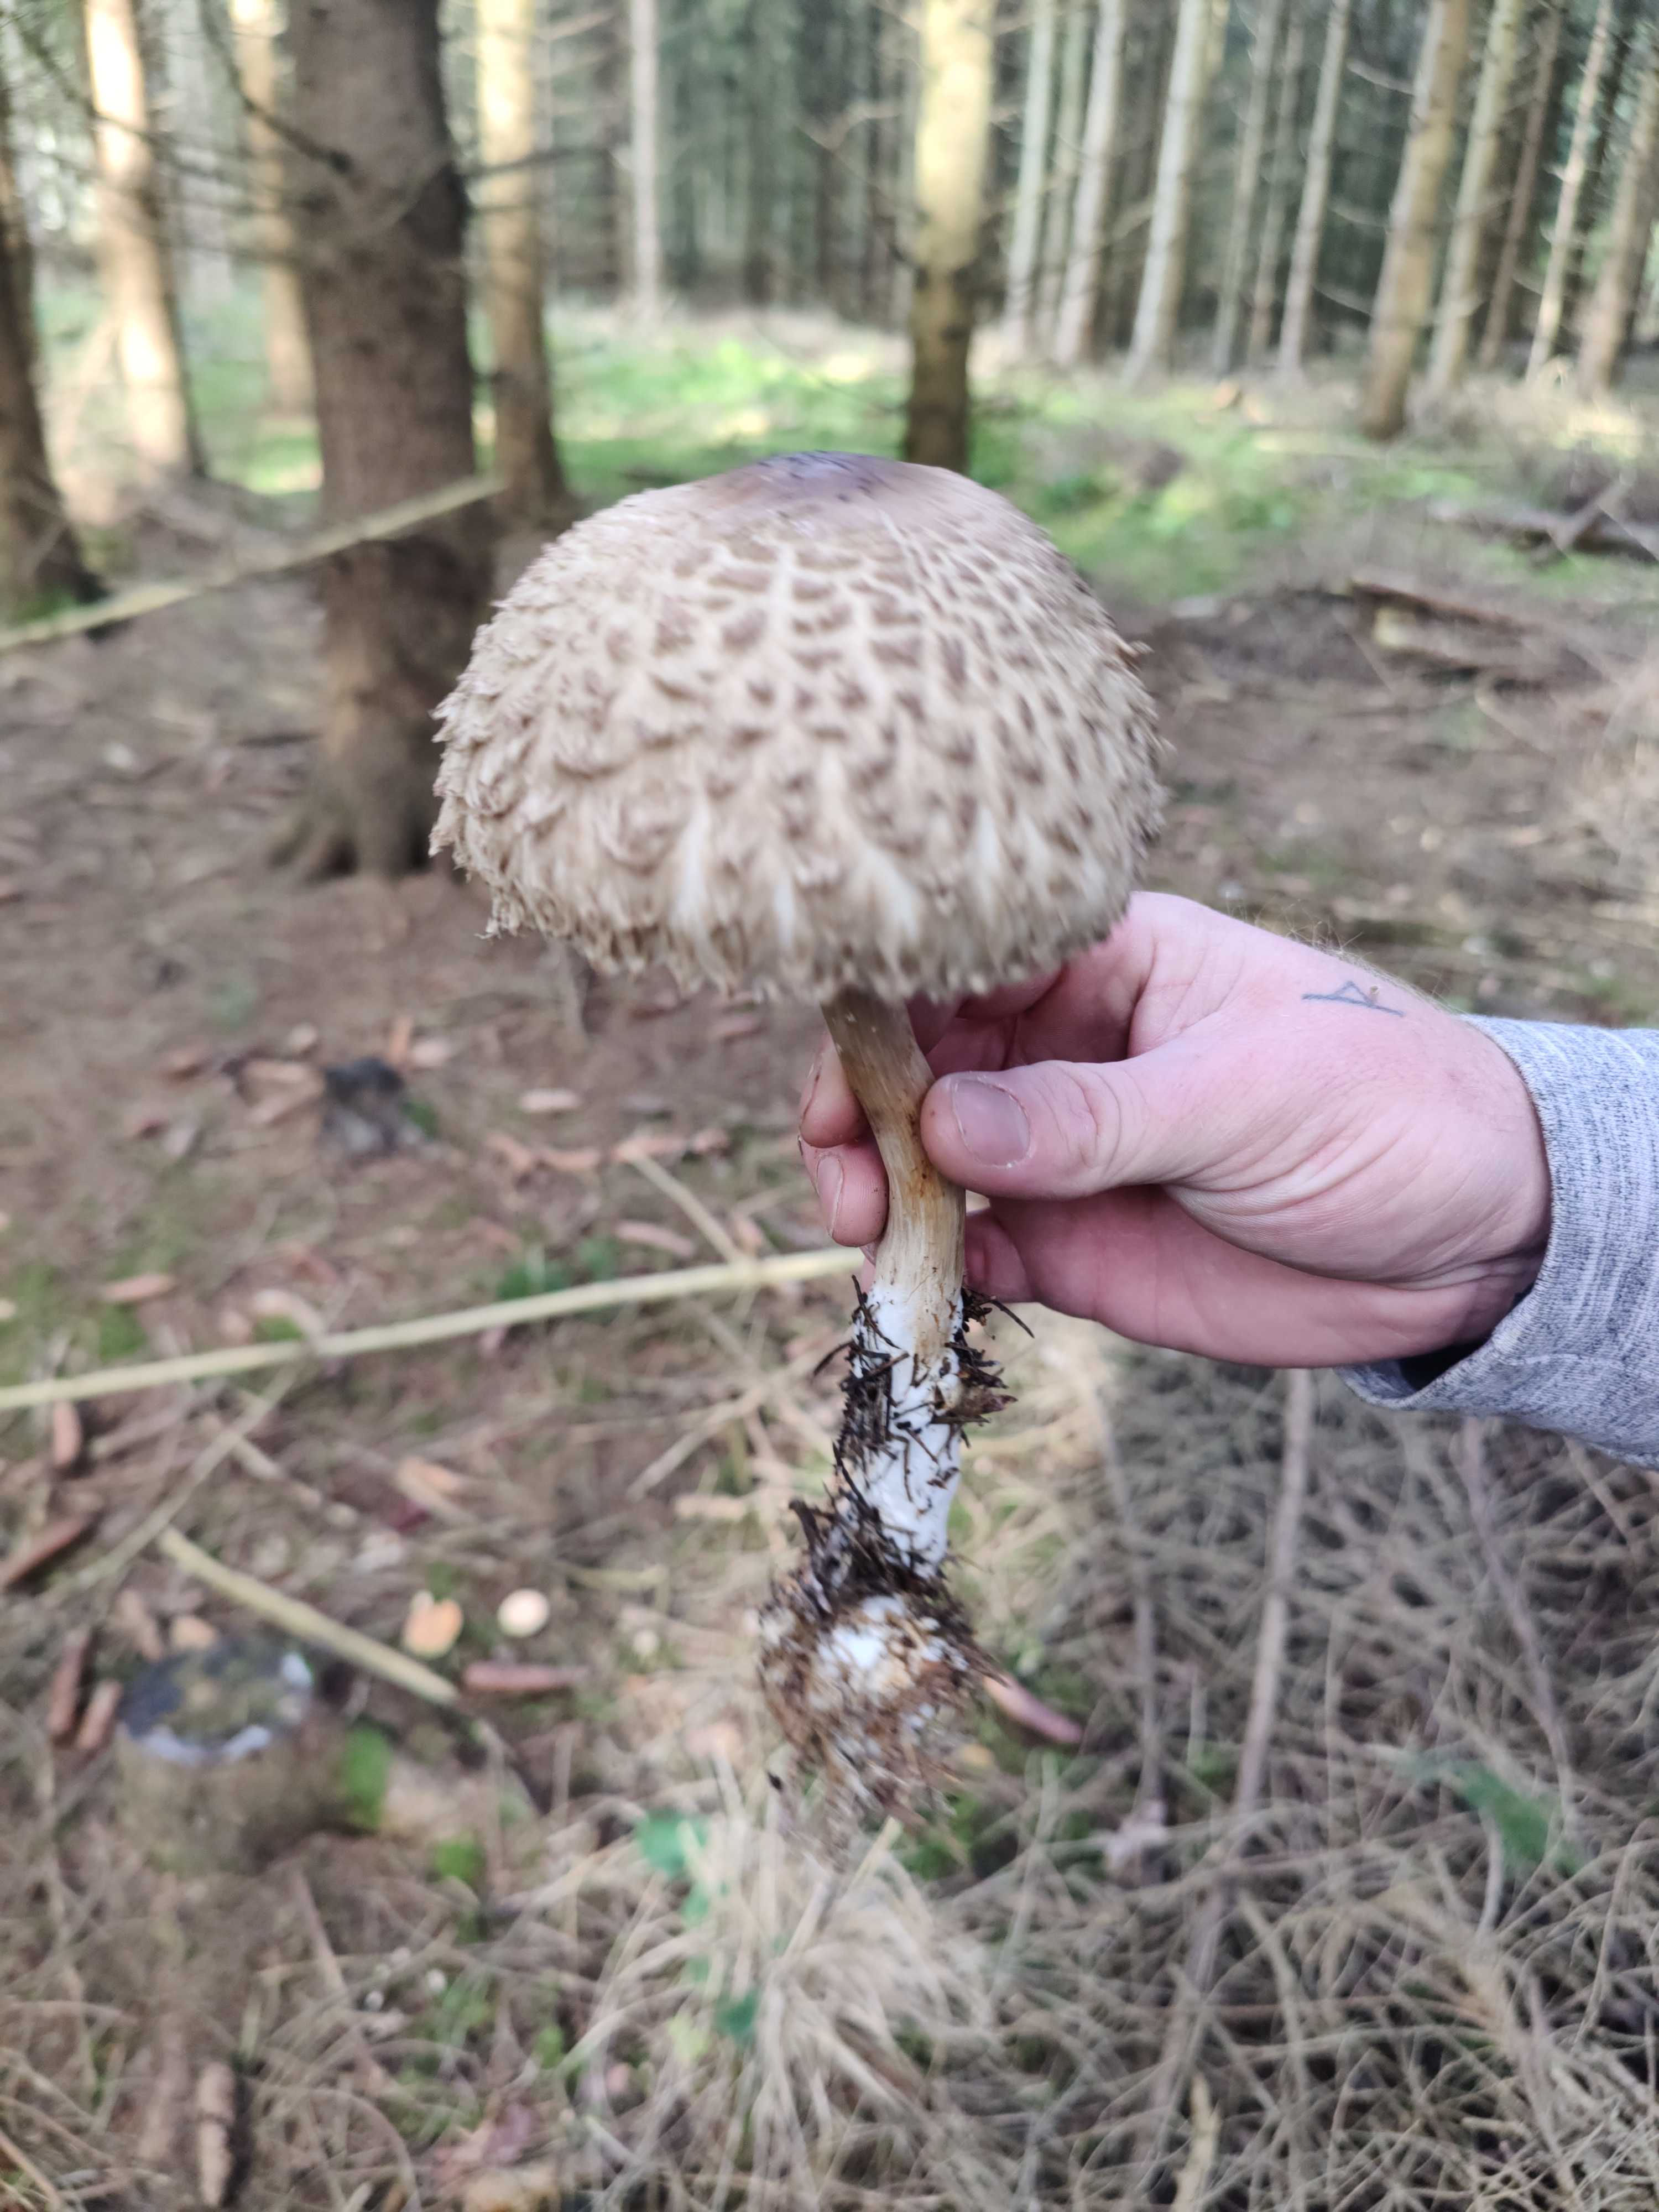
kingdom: Fungi
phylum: Basidiomycota
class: Agaricomycetes
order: Agaricales
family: Agaricaceae
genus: Chlorophyllum
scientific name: Chlorophyllum olivieri
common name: almindelig rabarberhat
